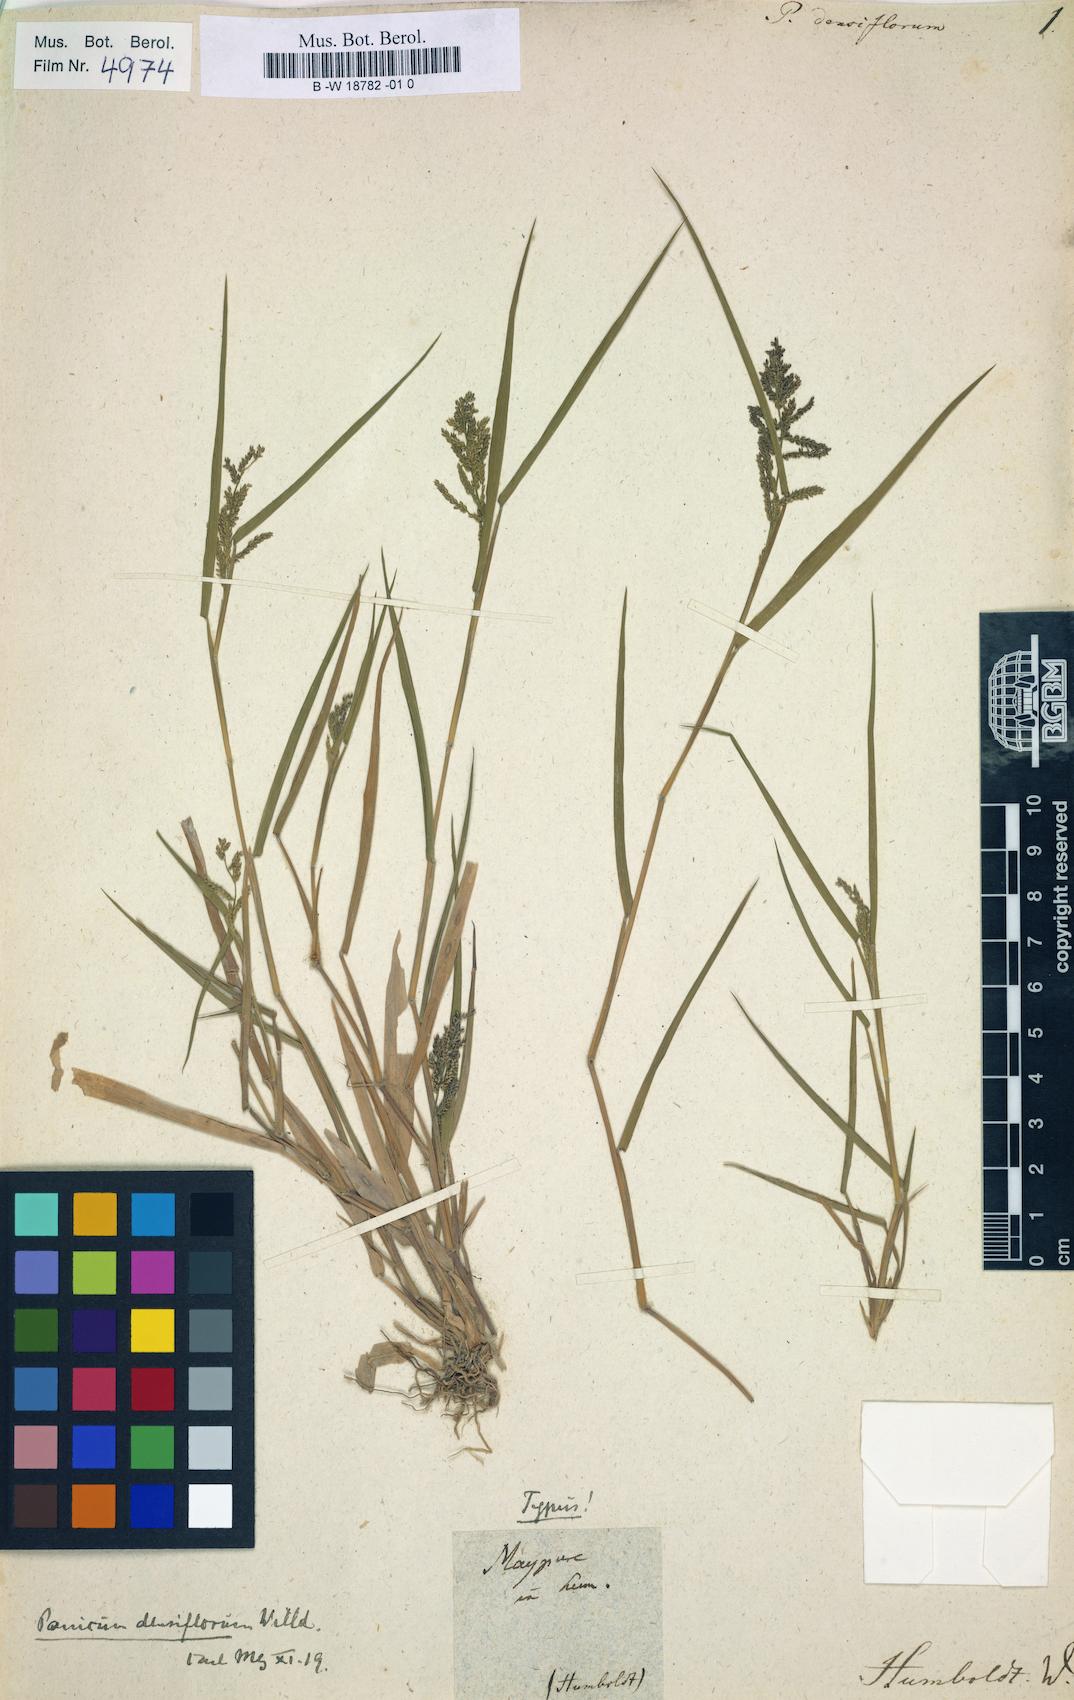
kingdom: Plantae
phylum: Tracheophyta
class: Liliopsida
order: Poales
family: Poaceae
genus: Rugoloa
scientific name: Rugoloa pilosa
